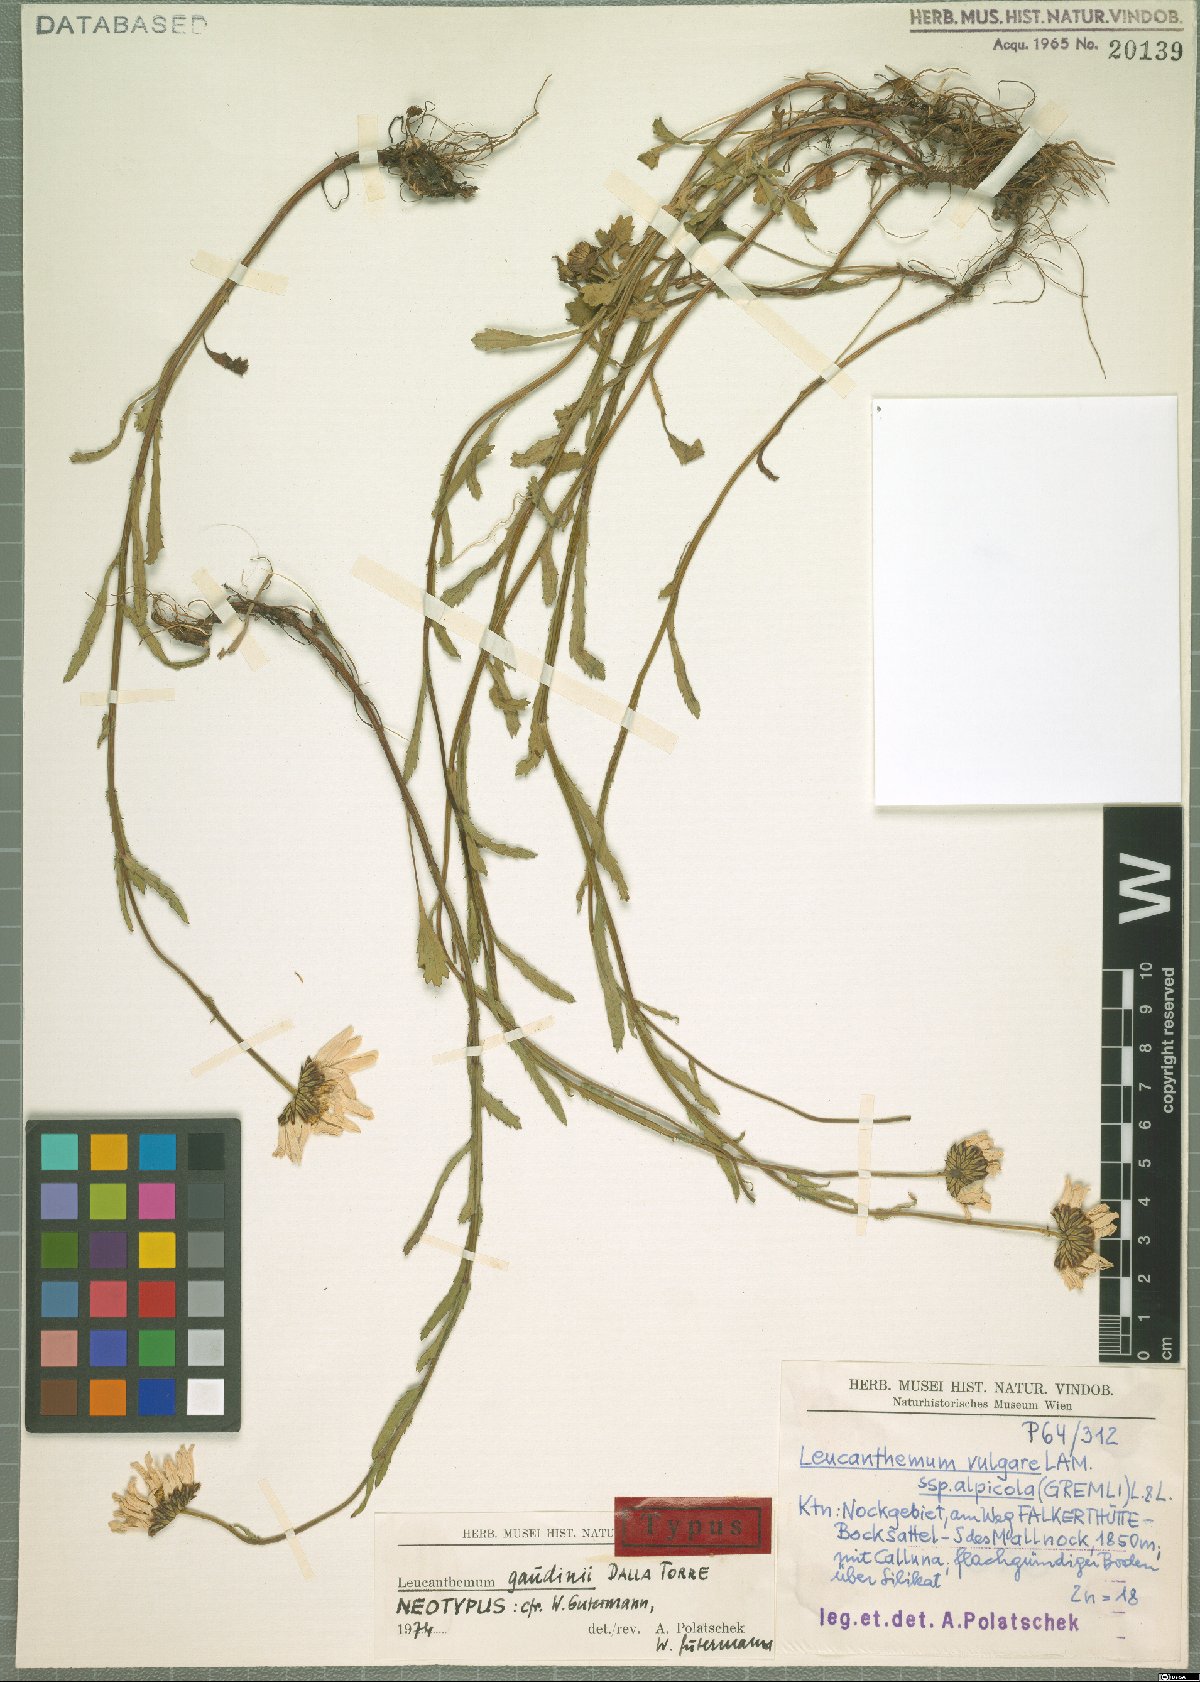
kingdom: Plantae
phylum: Tracheophyta
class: Magnoliopsida
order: Asterales
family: Asteraceae
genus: Leucanthemum
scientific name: Leucanthemum gaudinii
